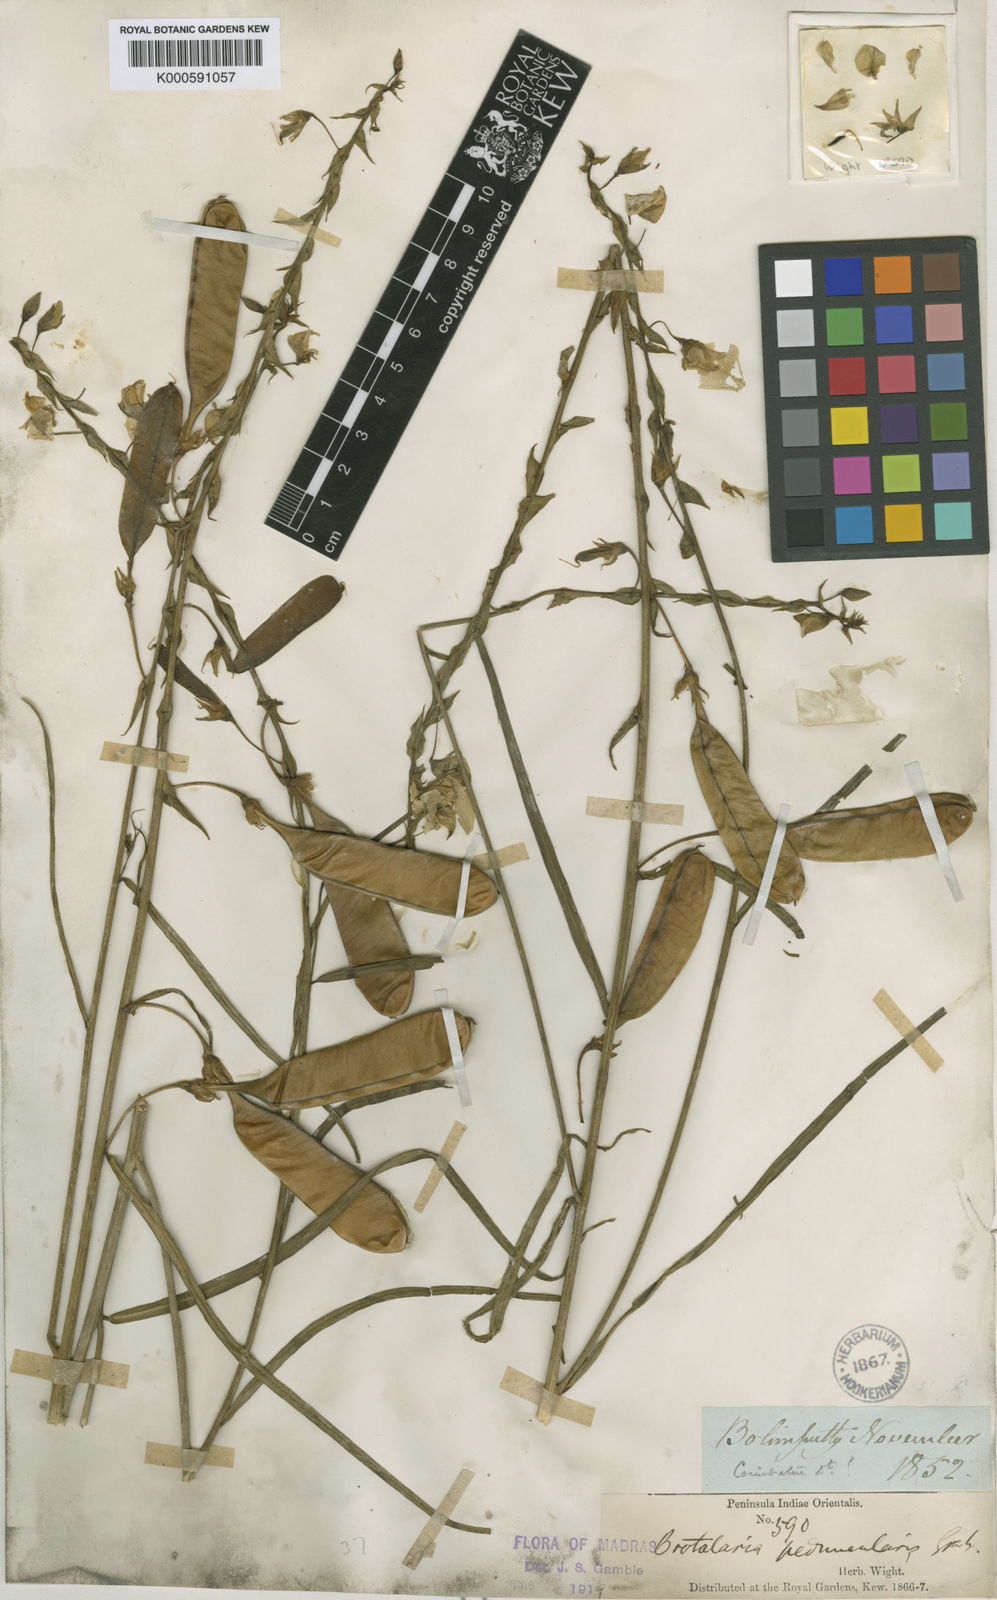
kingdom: Plantae
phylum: Tracheophyta
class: Magnoliopsida
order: Fabales
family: Fabaceae
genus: Crotalaria
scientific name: Crotalaria
